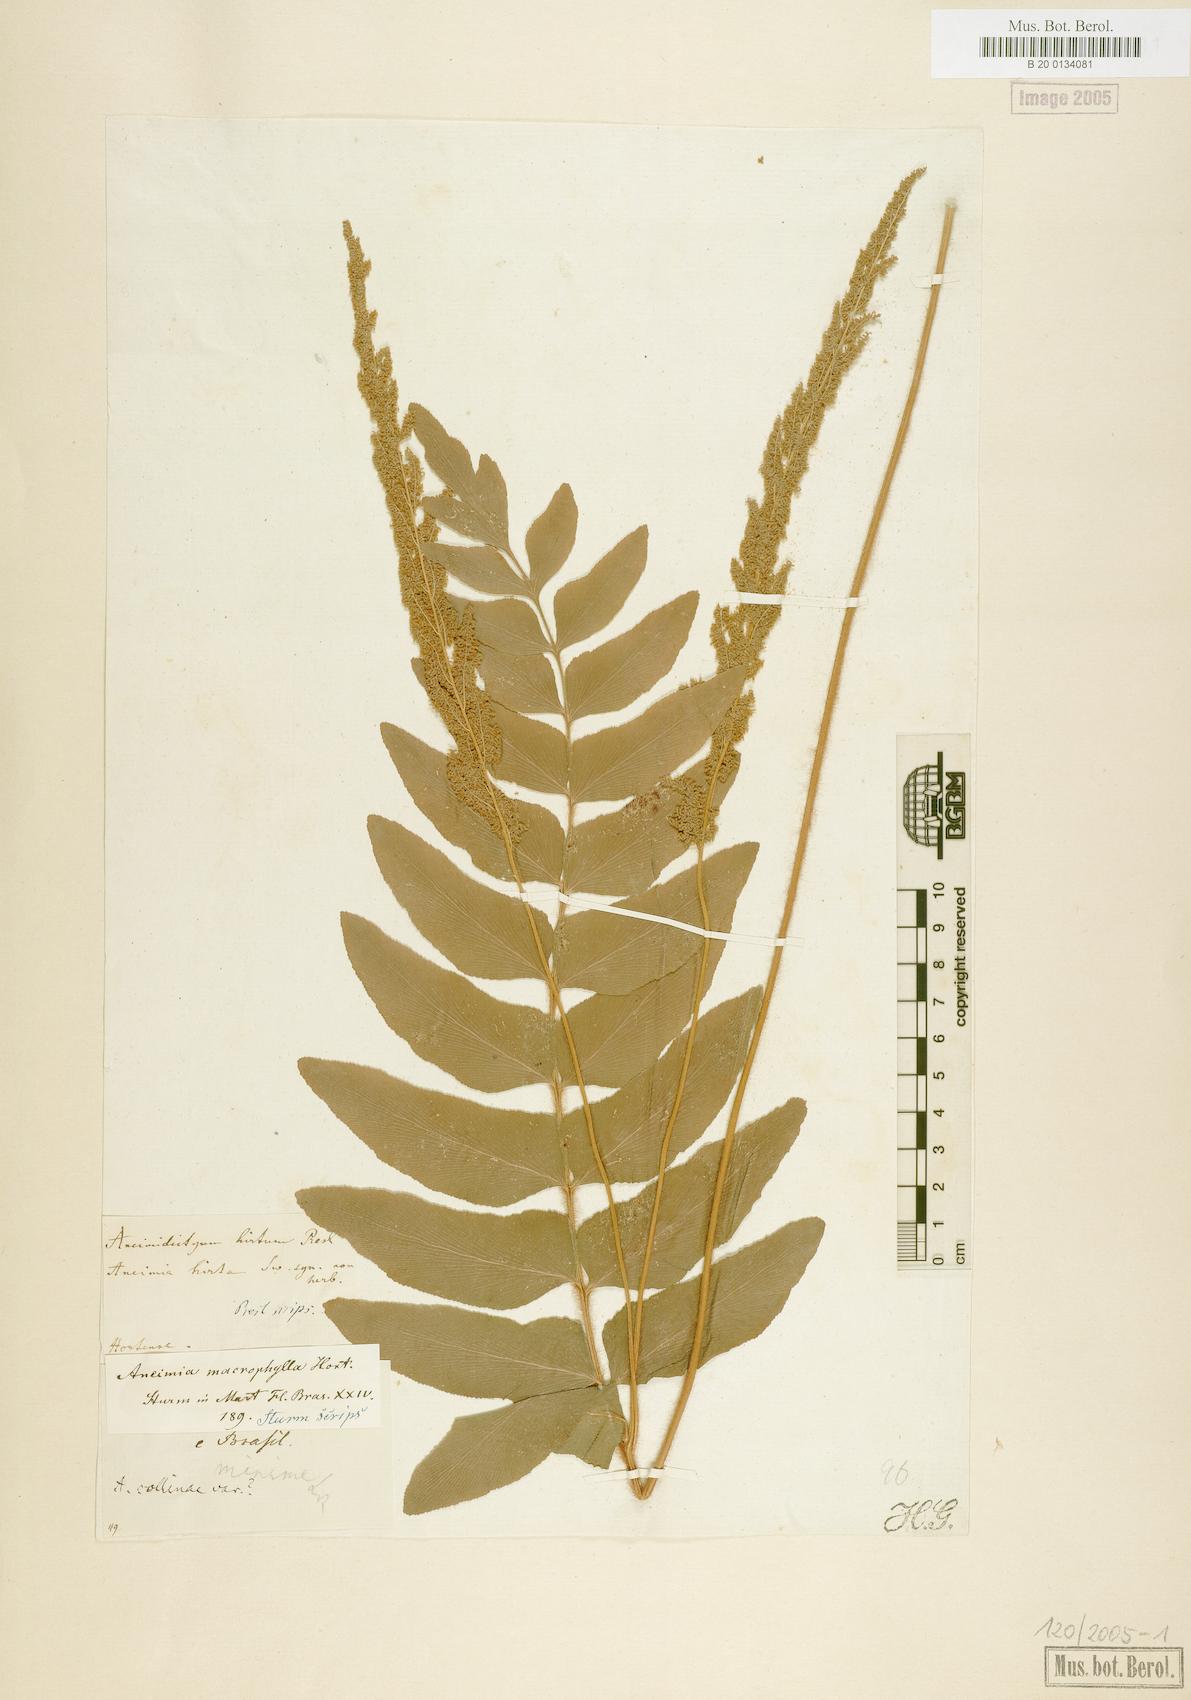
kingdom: Plantae
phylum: Tracheophyta
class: Polypodiopsida
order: Schizaeales
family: Anemiaceae
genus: Anemia
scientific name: Anemia collina
